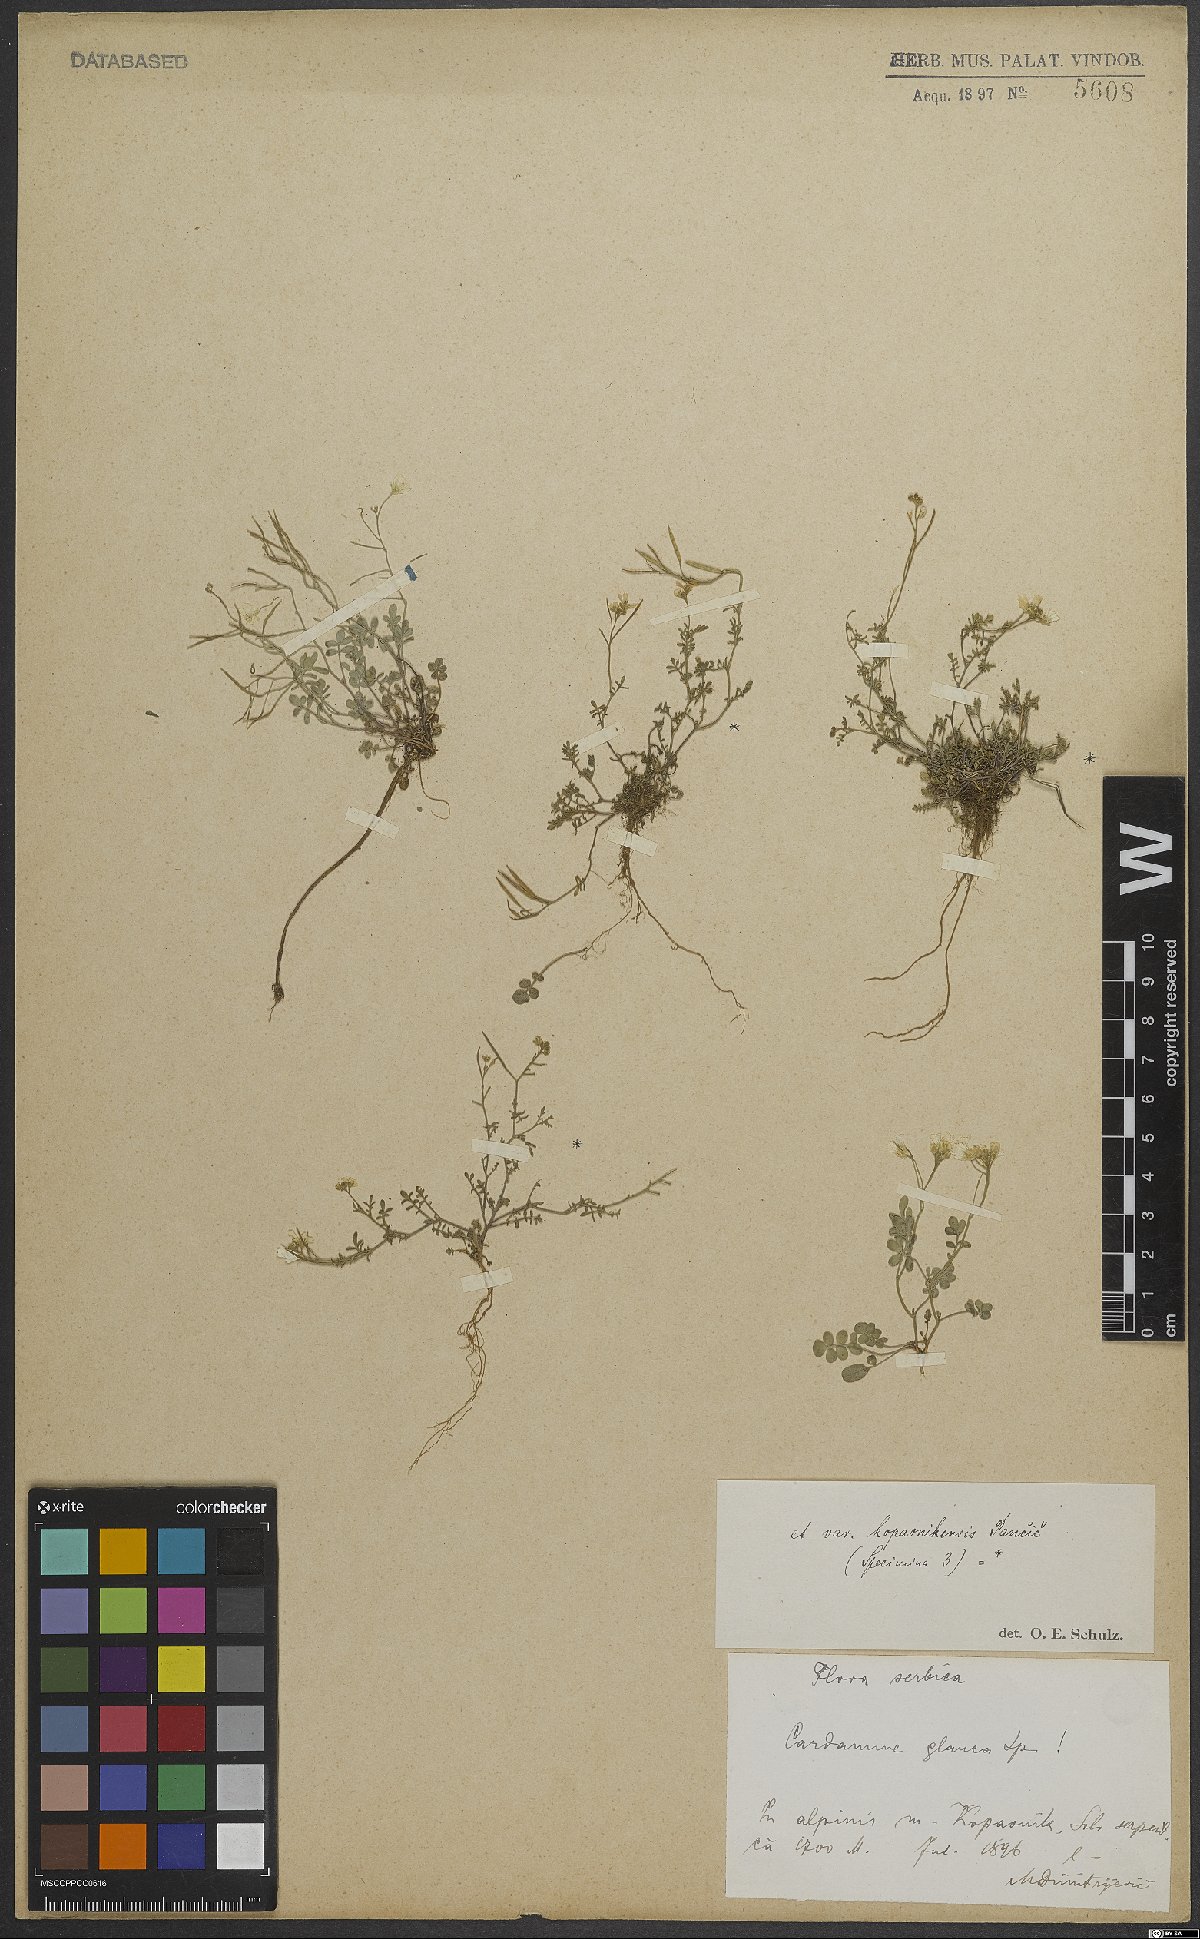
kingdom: Plantae
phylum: Tracheophyta
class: Magnoliopsida
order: Brassicales
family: Brassicaceae
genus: Cardamine
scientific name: Cardamine glauca
